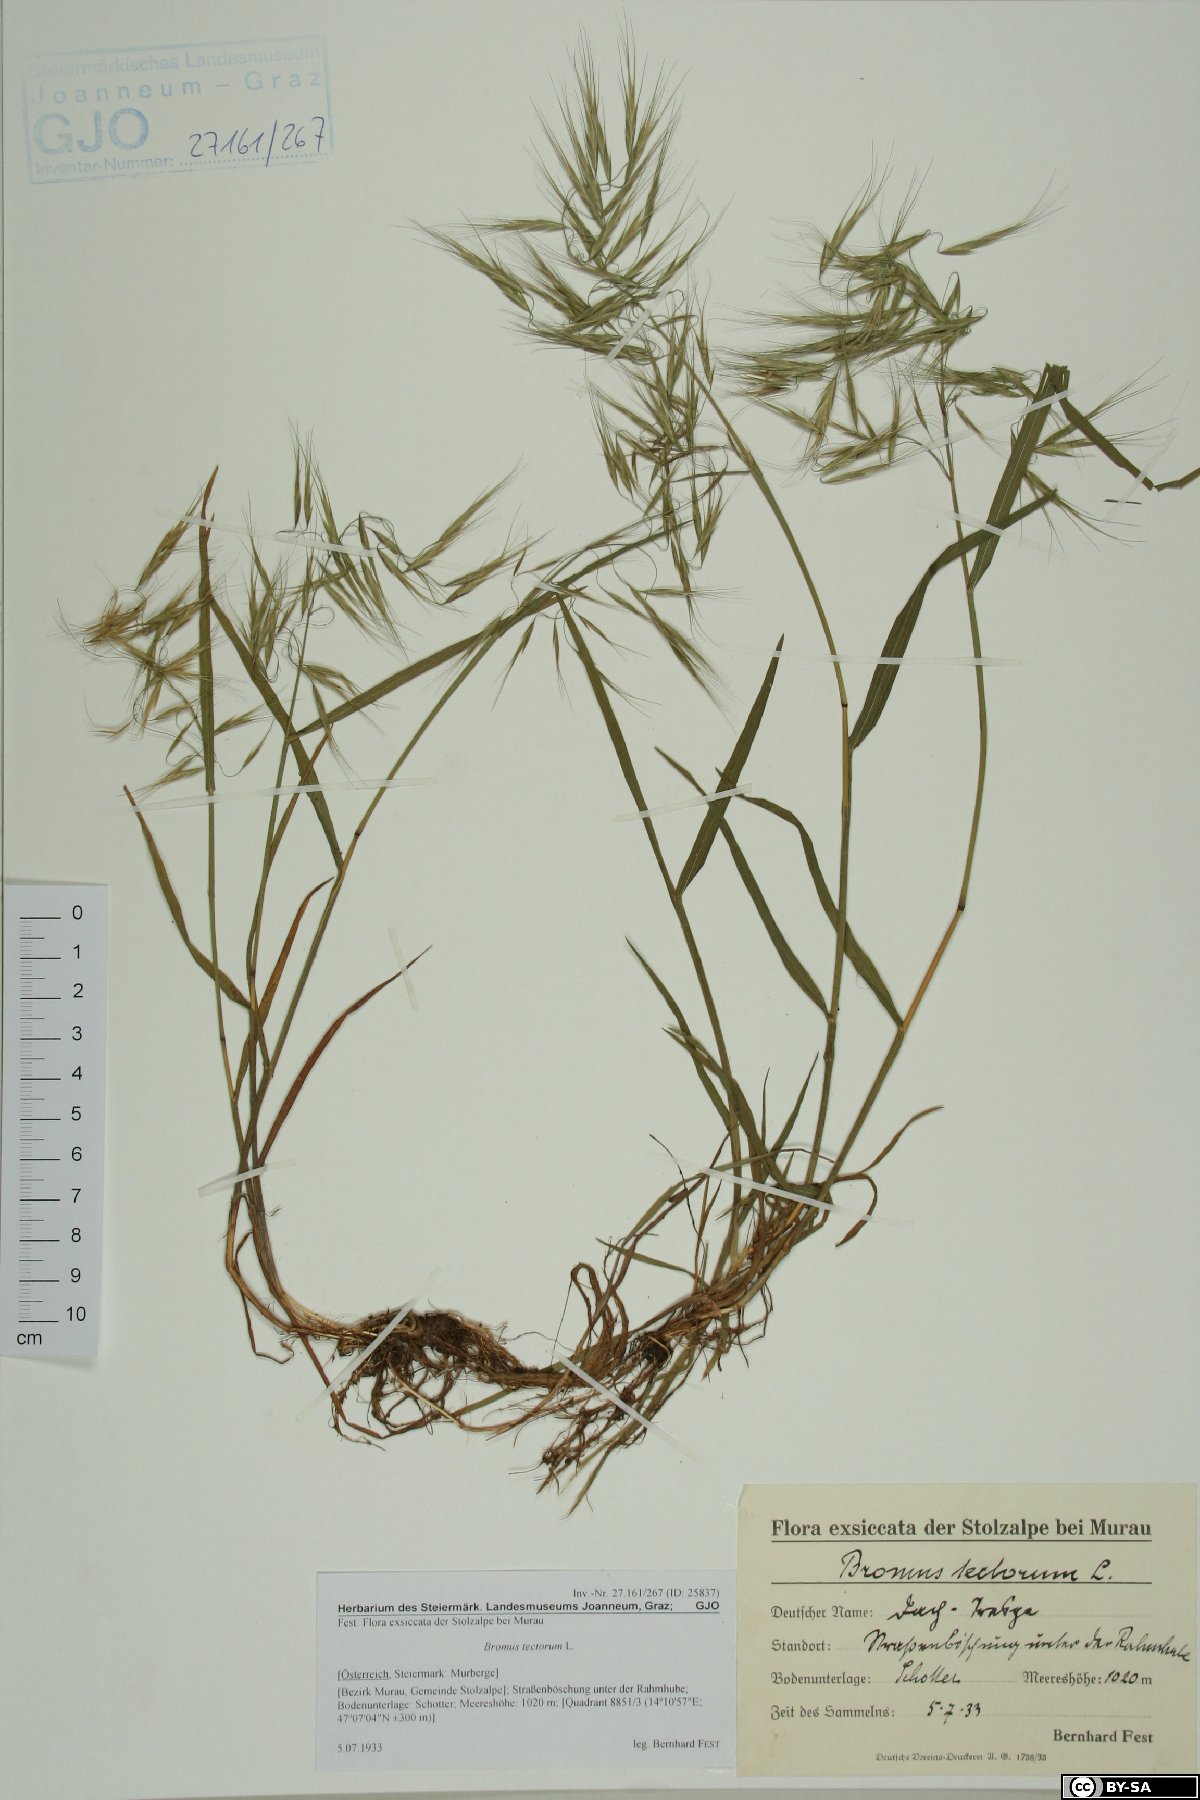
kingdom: Plantae
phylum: Tracheophyta
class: Liliopsida
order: Poales
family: Poaceae
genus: Bromus
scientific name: Bromus tectorum
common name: Cheatgrass
